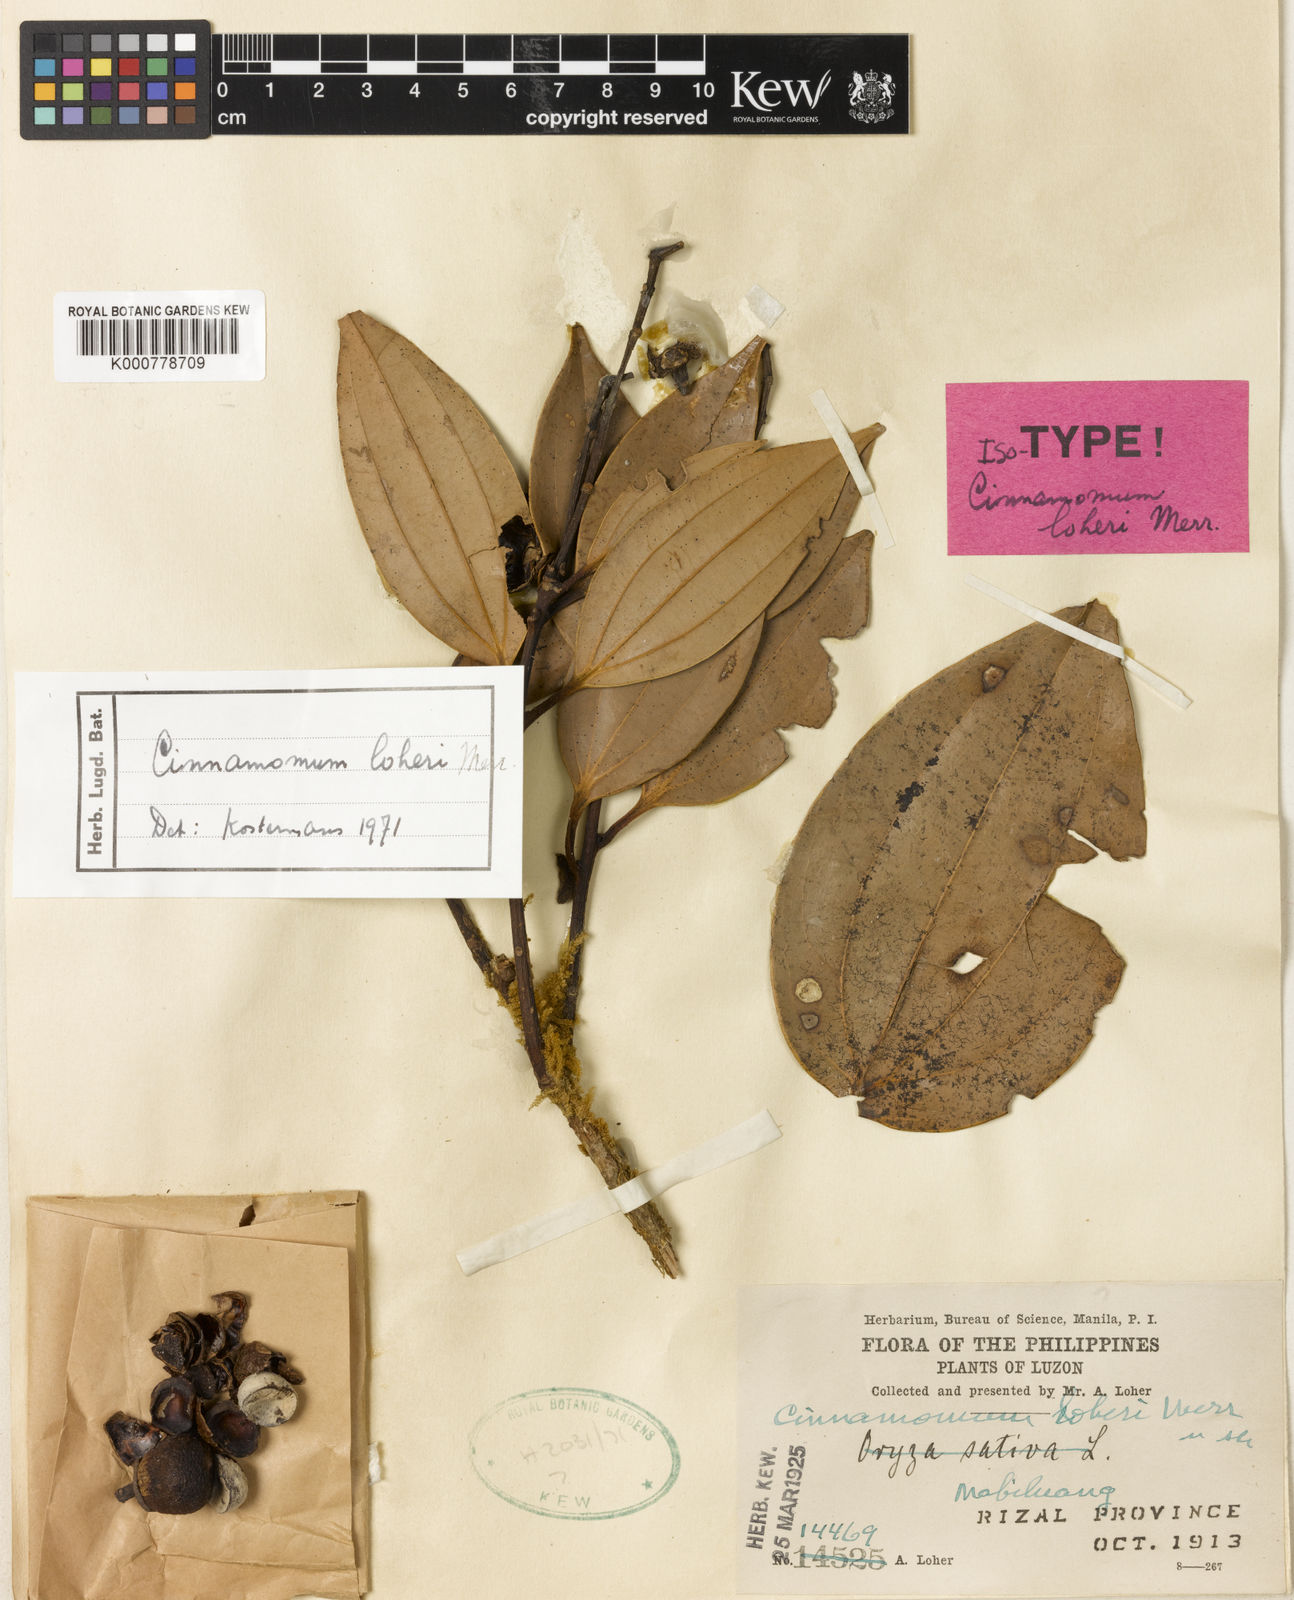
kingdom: Plantae
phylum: Tracheophyta
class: Magnoliopsida
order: Laurales
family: Lauraceae
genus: Cinnamomum
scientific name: Cinnamomum loheri
